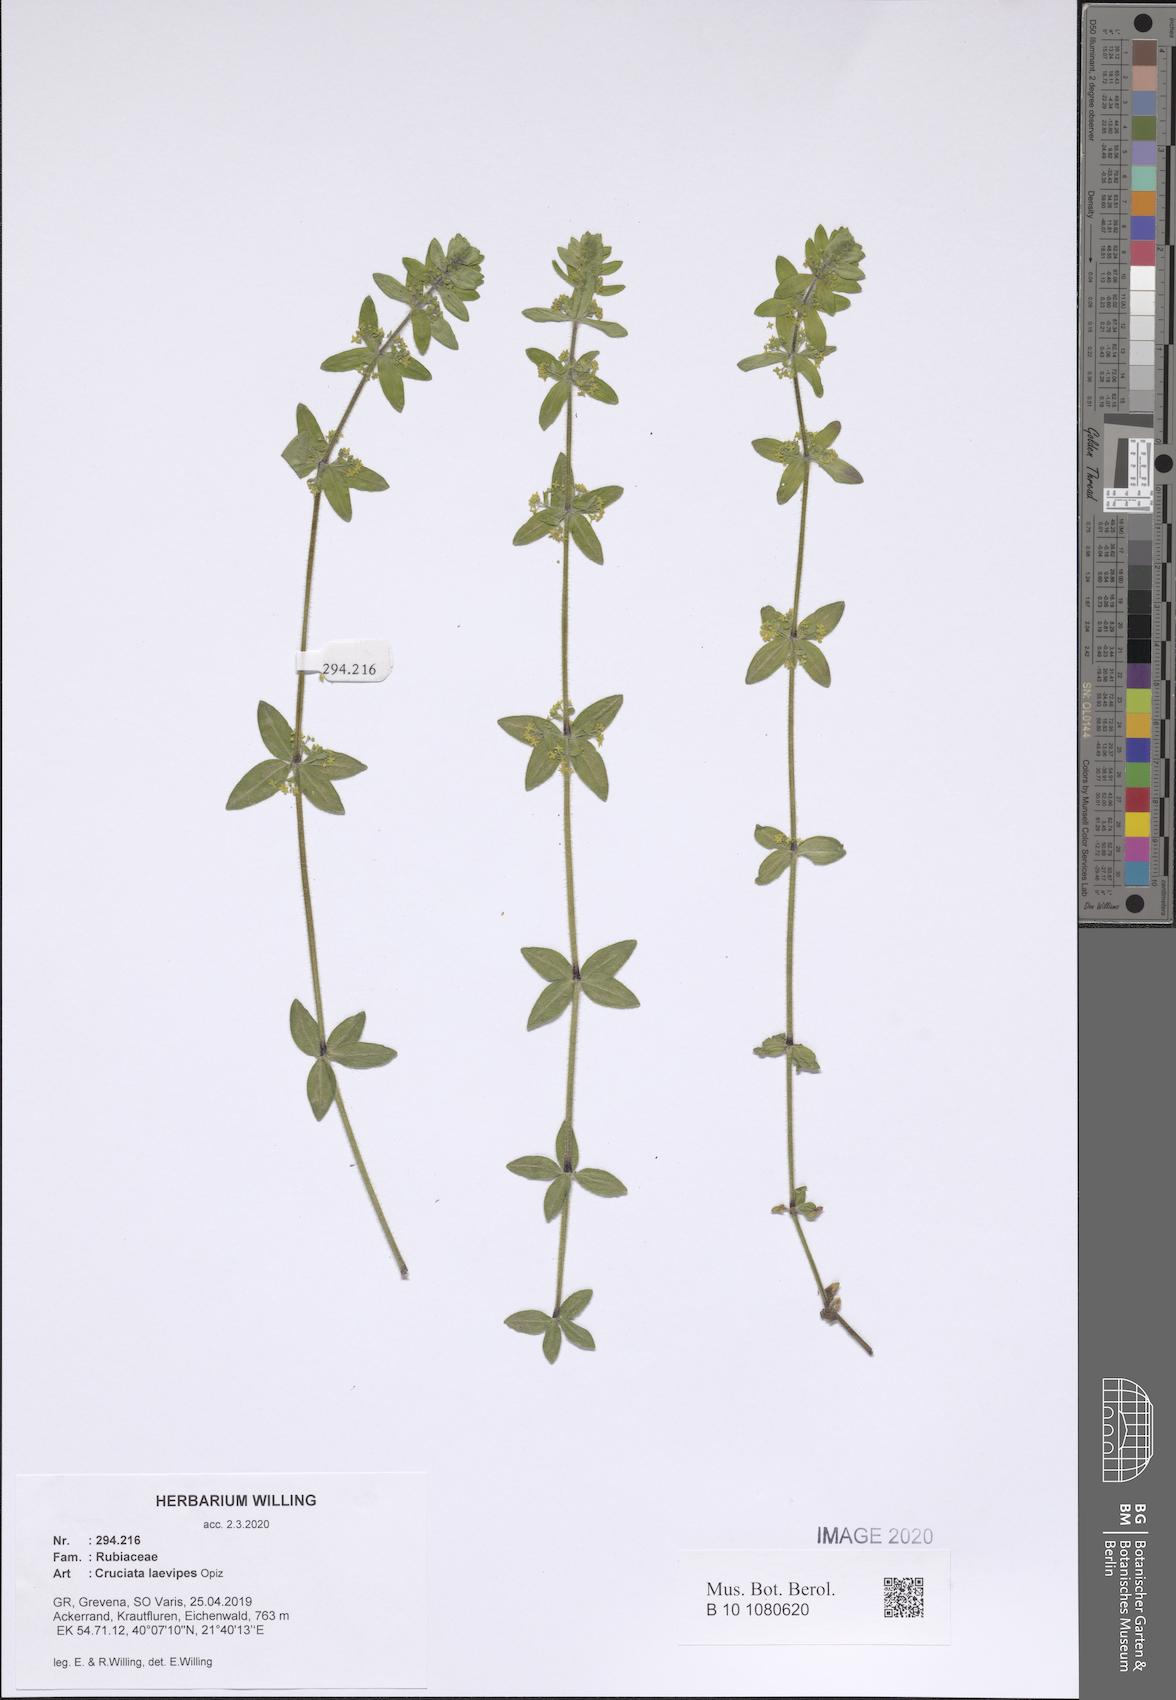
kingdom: Plantae
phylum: Tracheophyta
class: Magnoliopsida
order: Gentianales
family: Rubiaceae
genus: Cruciata
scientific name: Cruciata laevipes
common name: Crosswort
